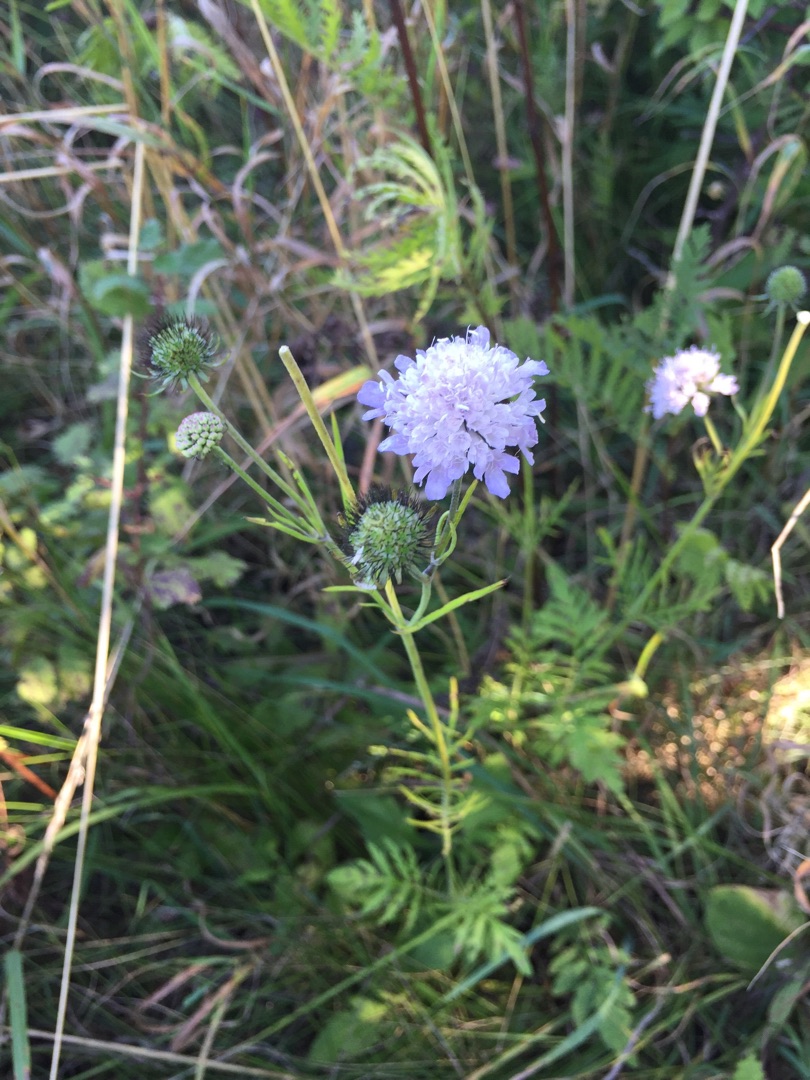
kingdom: Plantae
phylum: Tracheophyta
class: Magnoliopsida
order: Dipsacales
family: Caprifoliaceae
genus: Scabiosa
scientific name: Scabiosa columbaria
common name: Due-skabiose
